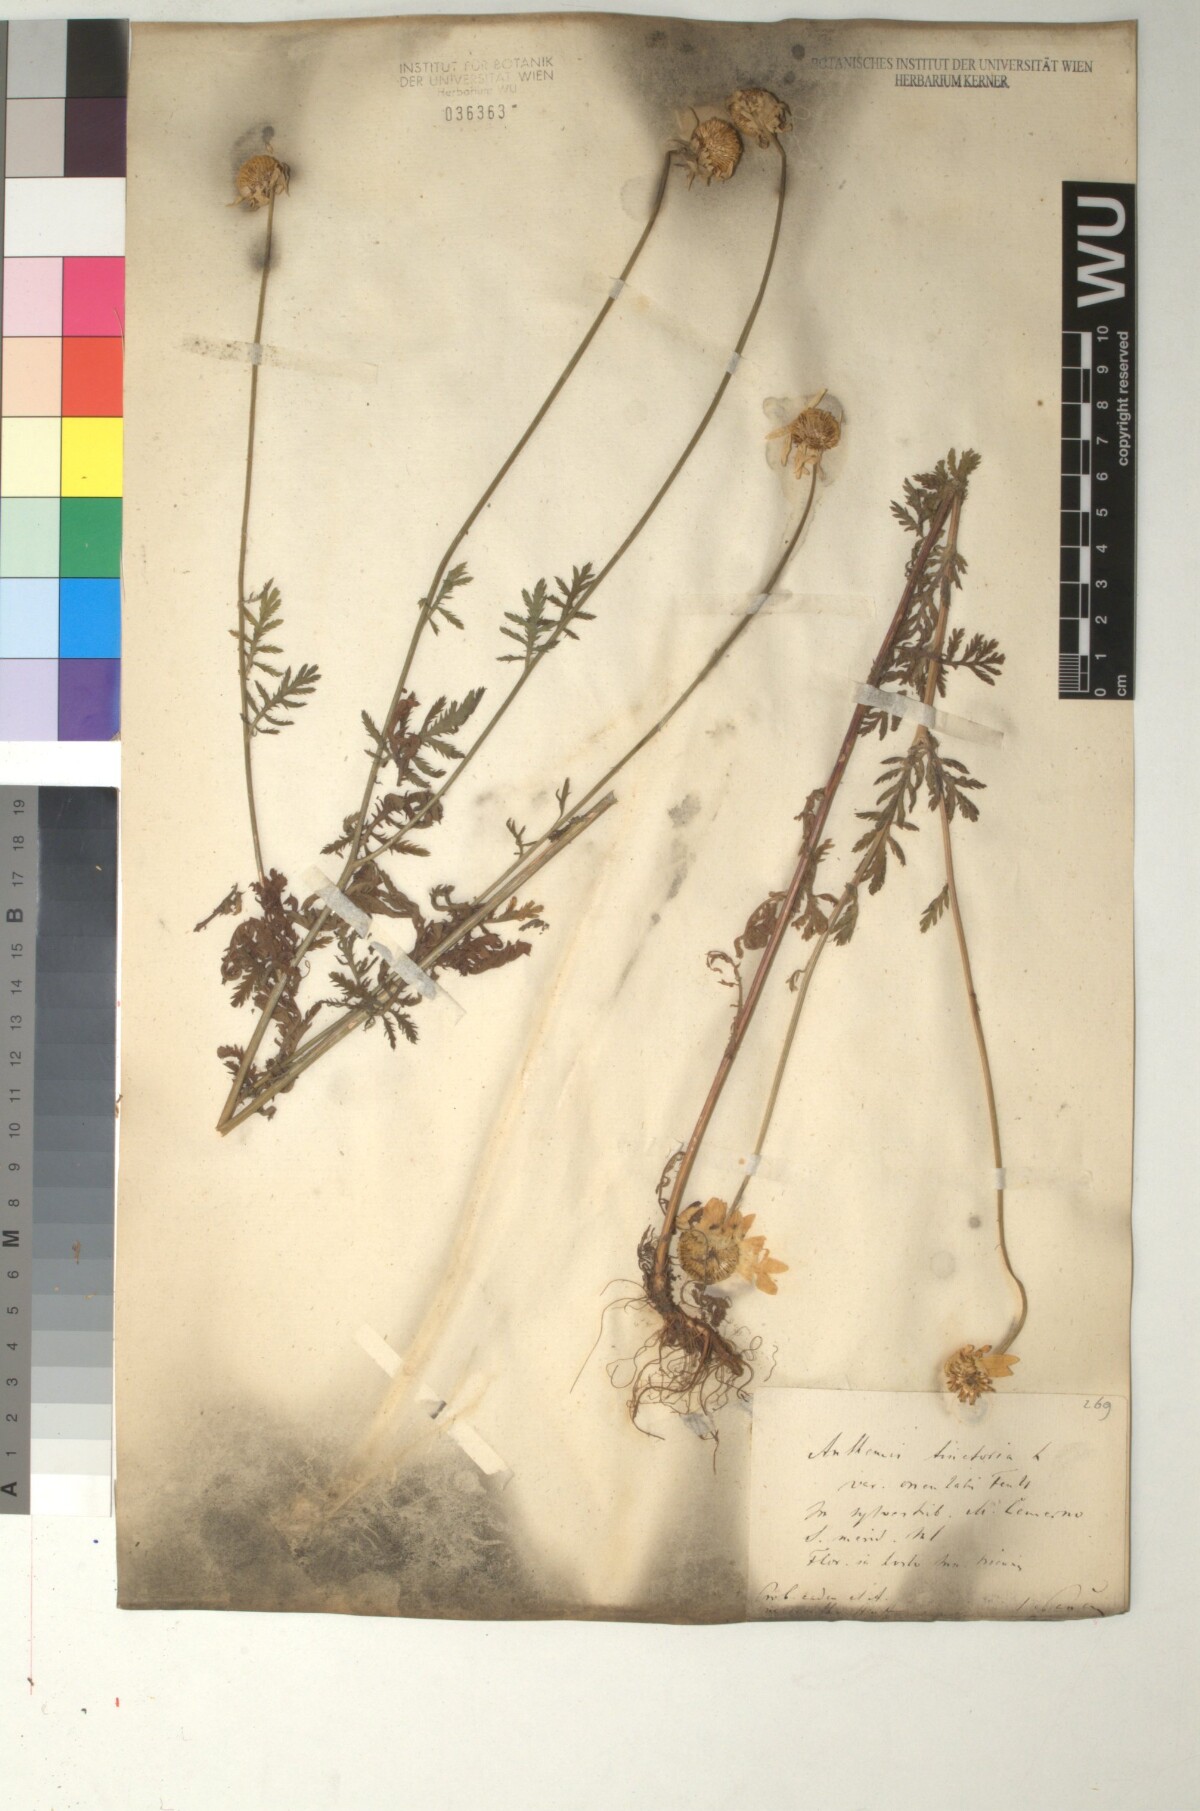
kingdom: Plantae
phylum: Tracheophyta
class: Magnoliopsida
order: Asterales
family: Asteraceae
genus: Cota
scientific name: Cota macrantha
